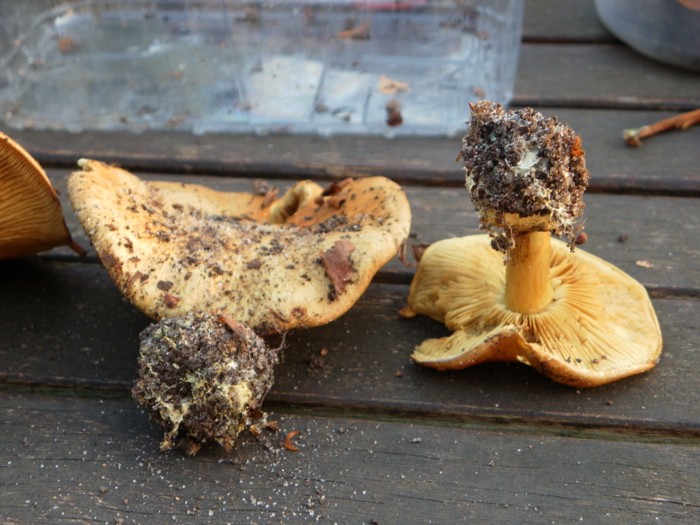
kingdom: Fungi
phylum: Basidiomycota
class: Agaricomycetes
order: Agaricales
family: Cortinariaceae
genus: Calonarius
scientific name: Calonarius citrinus
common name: citrongul slørhat
